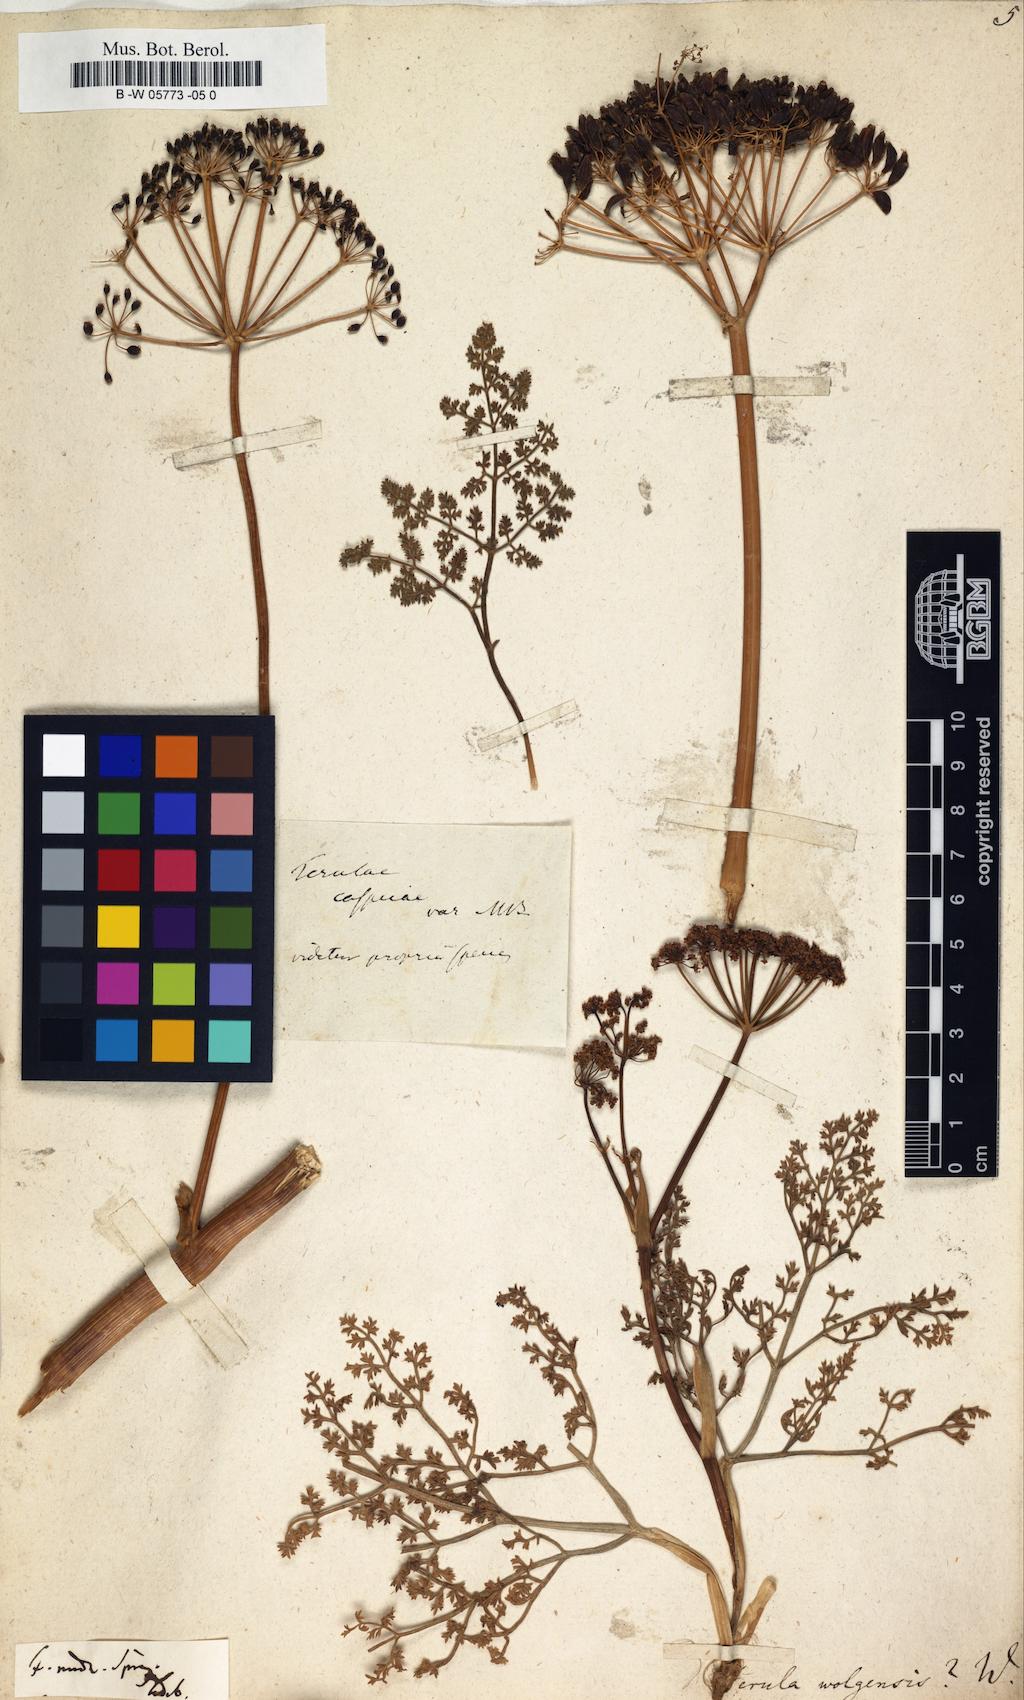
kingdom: Plantae
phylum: Tracheophyta
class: Magnoliopsida
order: Apiales
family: Apiaceae
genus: Ferula
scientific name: Ferula nuda
